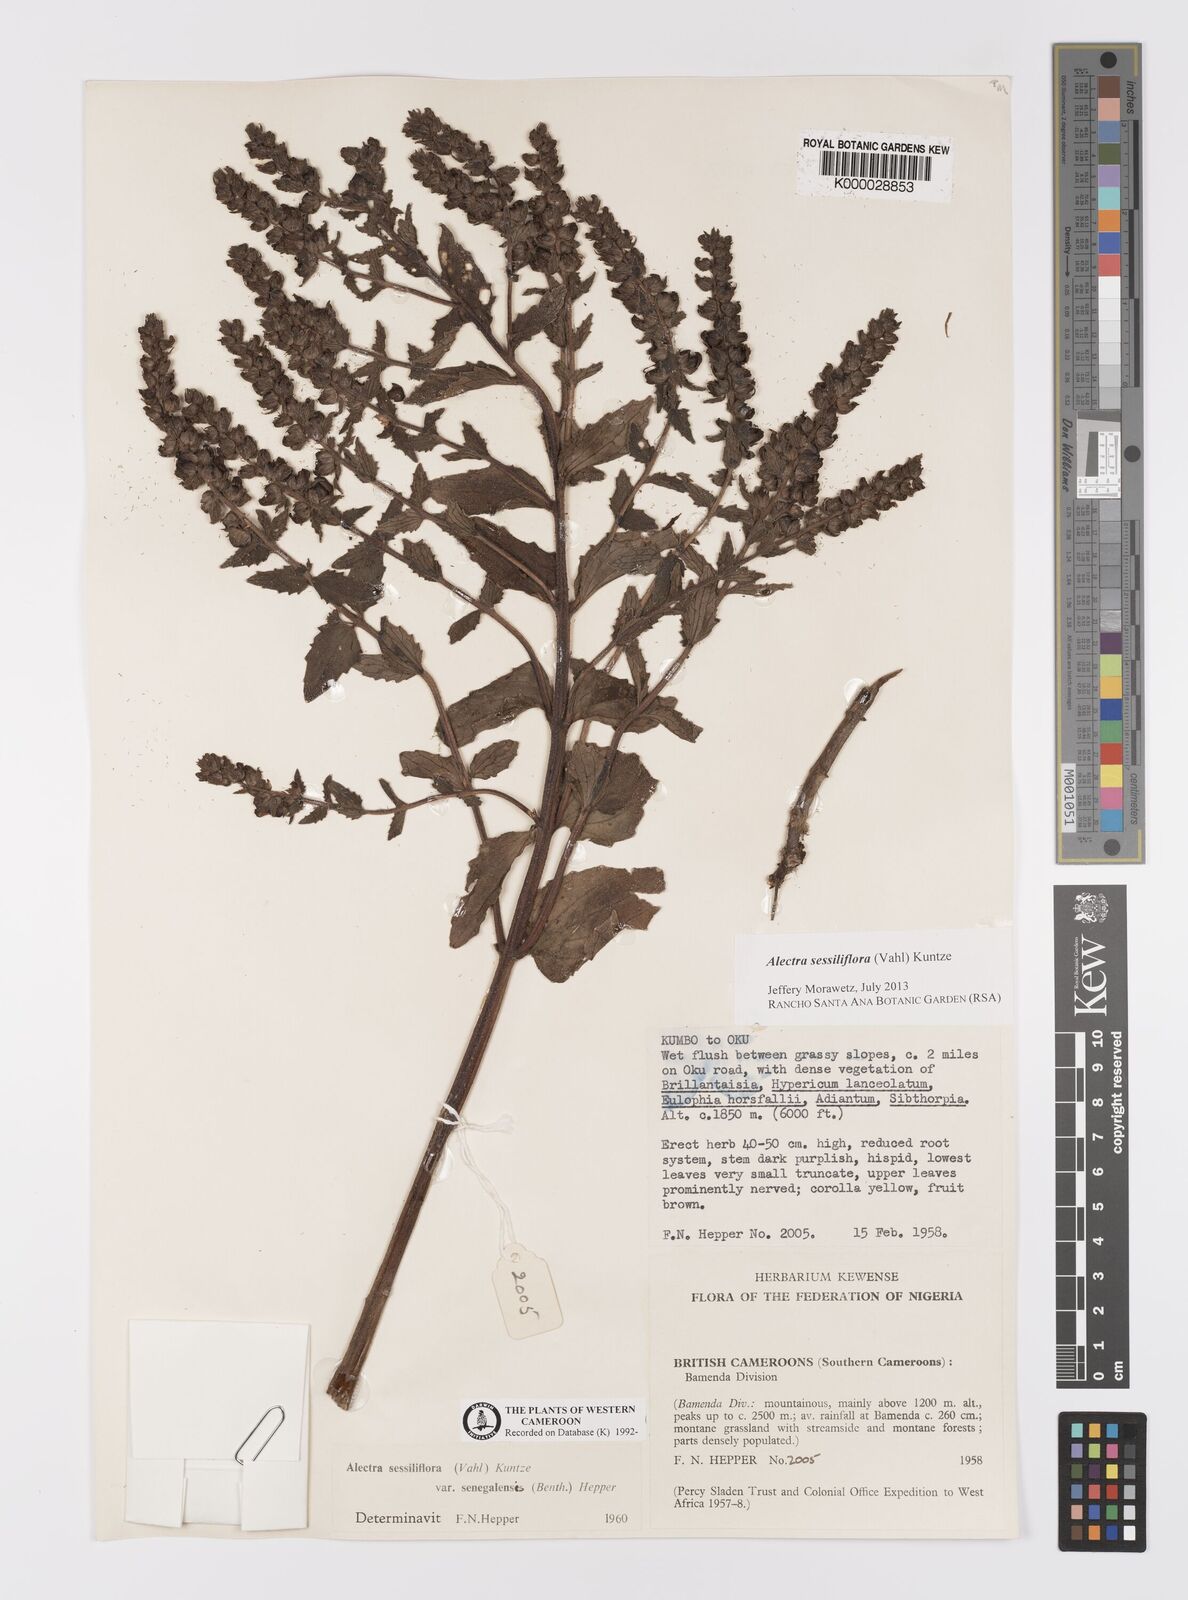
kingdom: Plantae
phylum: Tracheophyta
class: Magnoliopsida
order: Lamiales
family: Orobanchaceae
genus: Alectra
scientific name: Alectra sessiliflora
